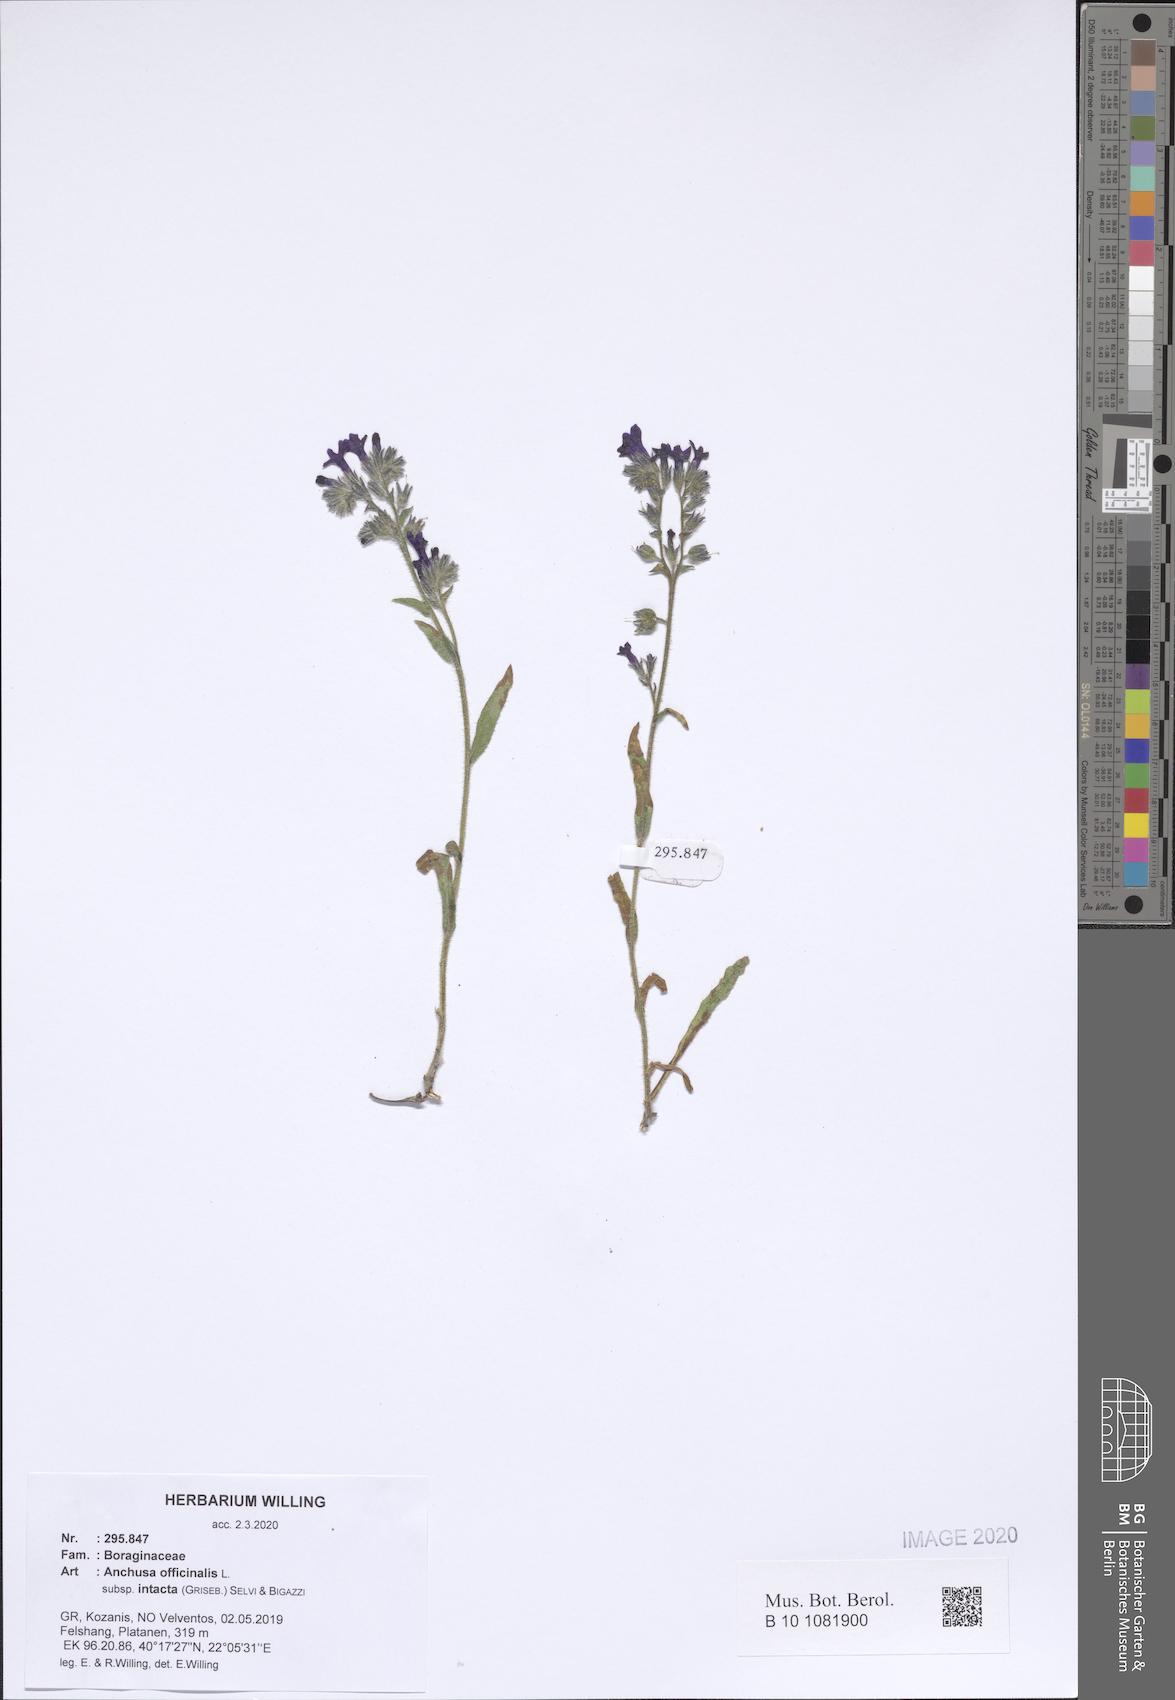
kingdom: Plantae
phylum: Tracheophyta
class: Magnoliopsida
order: Boraginales
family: Boraginaceae
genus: Anchusa
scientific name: Anchusa officinalis
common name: Alkanet
